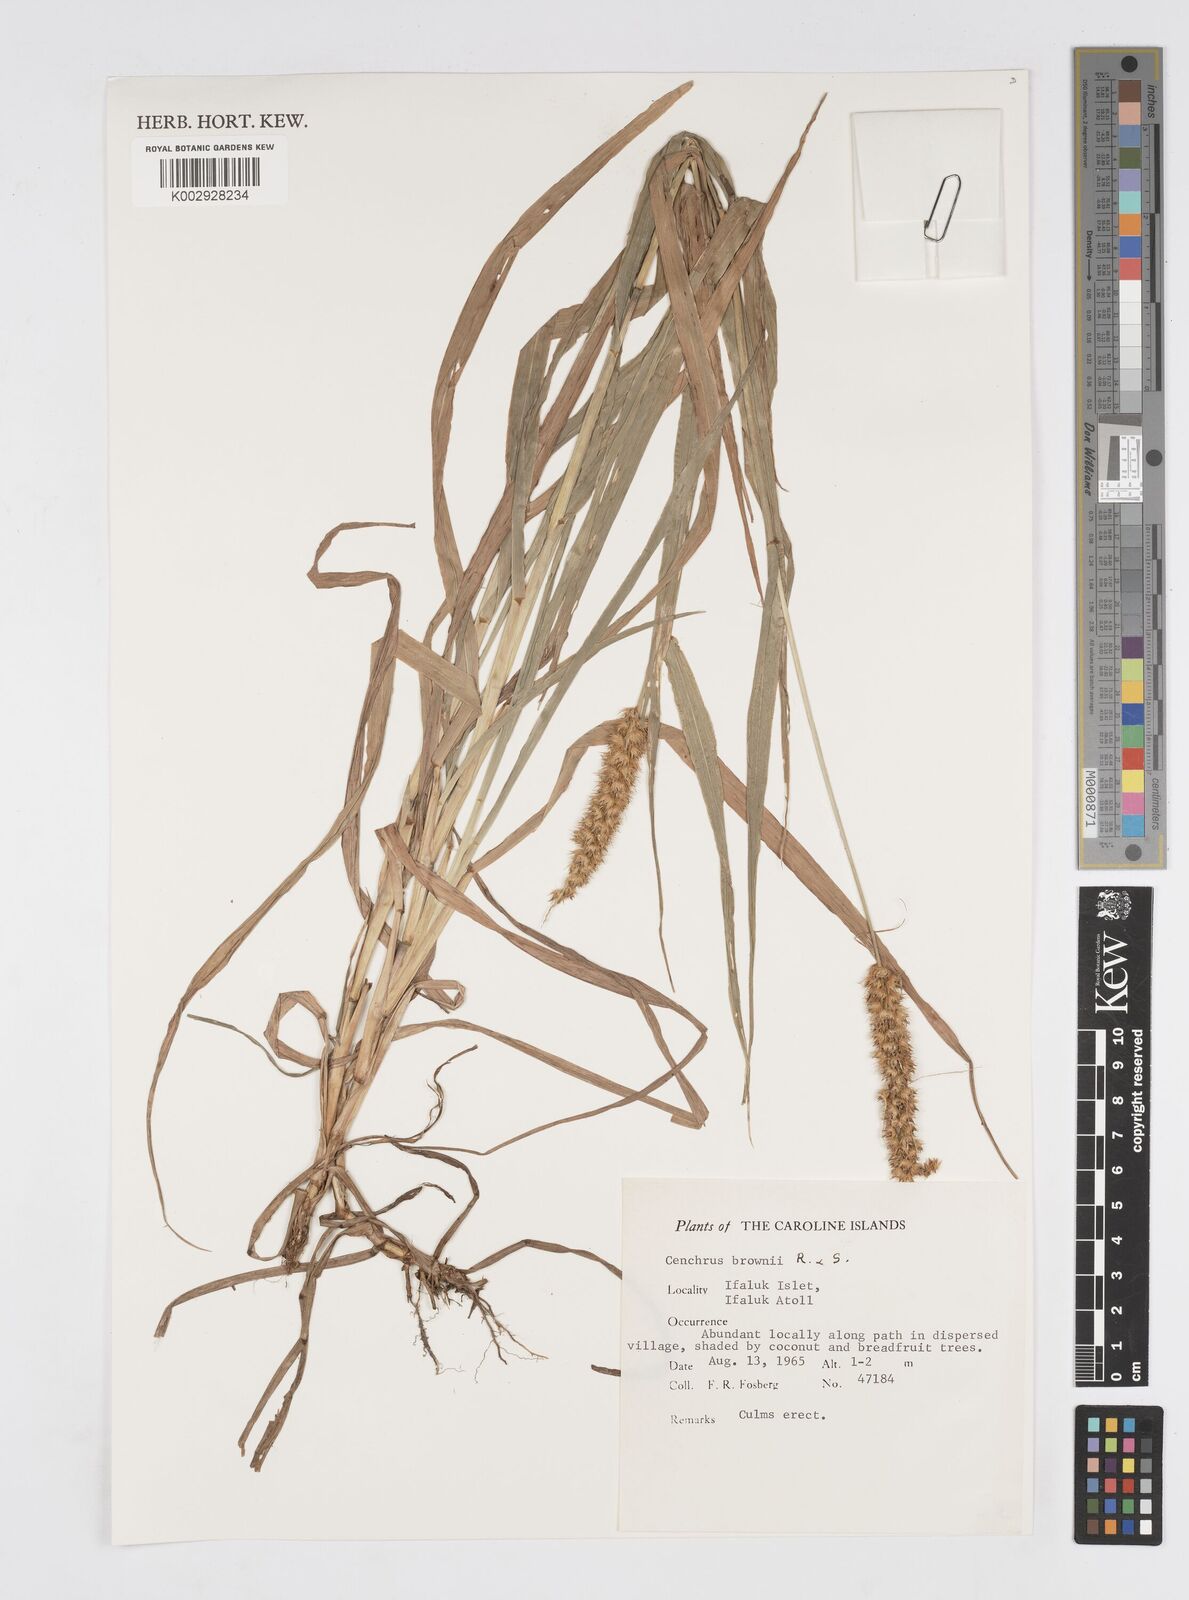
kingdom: Plantae
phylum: Tracheophyta
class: Liliopsida
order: Poales
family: Poaceae
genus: Cenchrus
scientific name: Cenchrus brownii
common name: Slim-bristle sandbur
